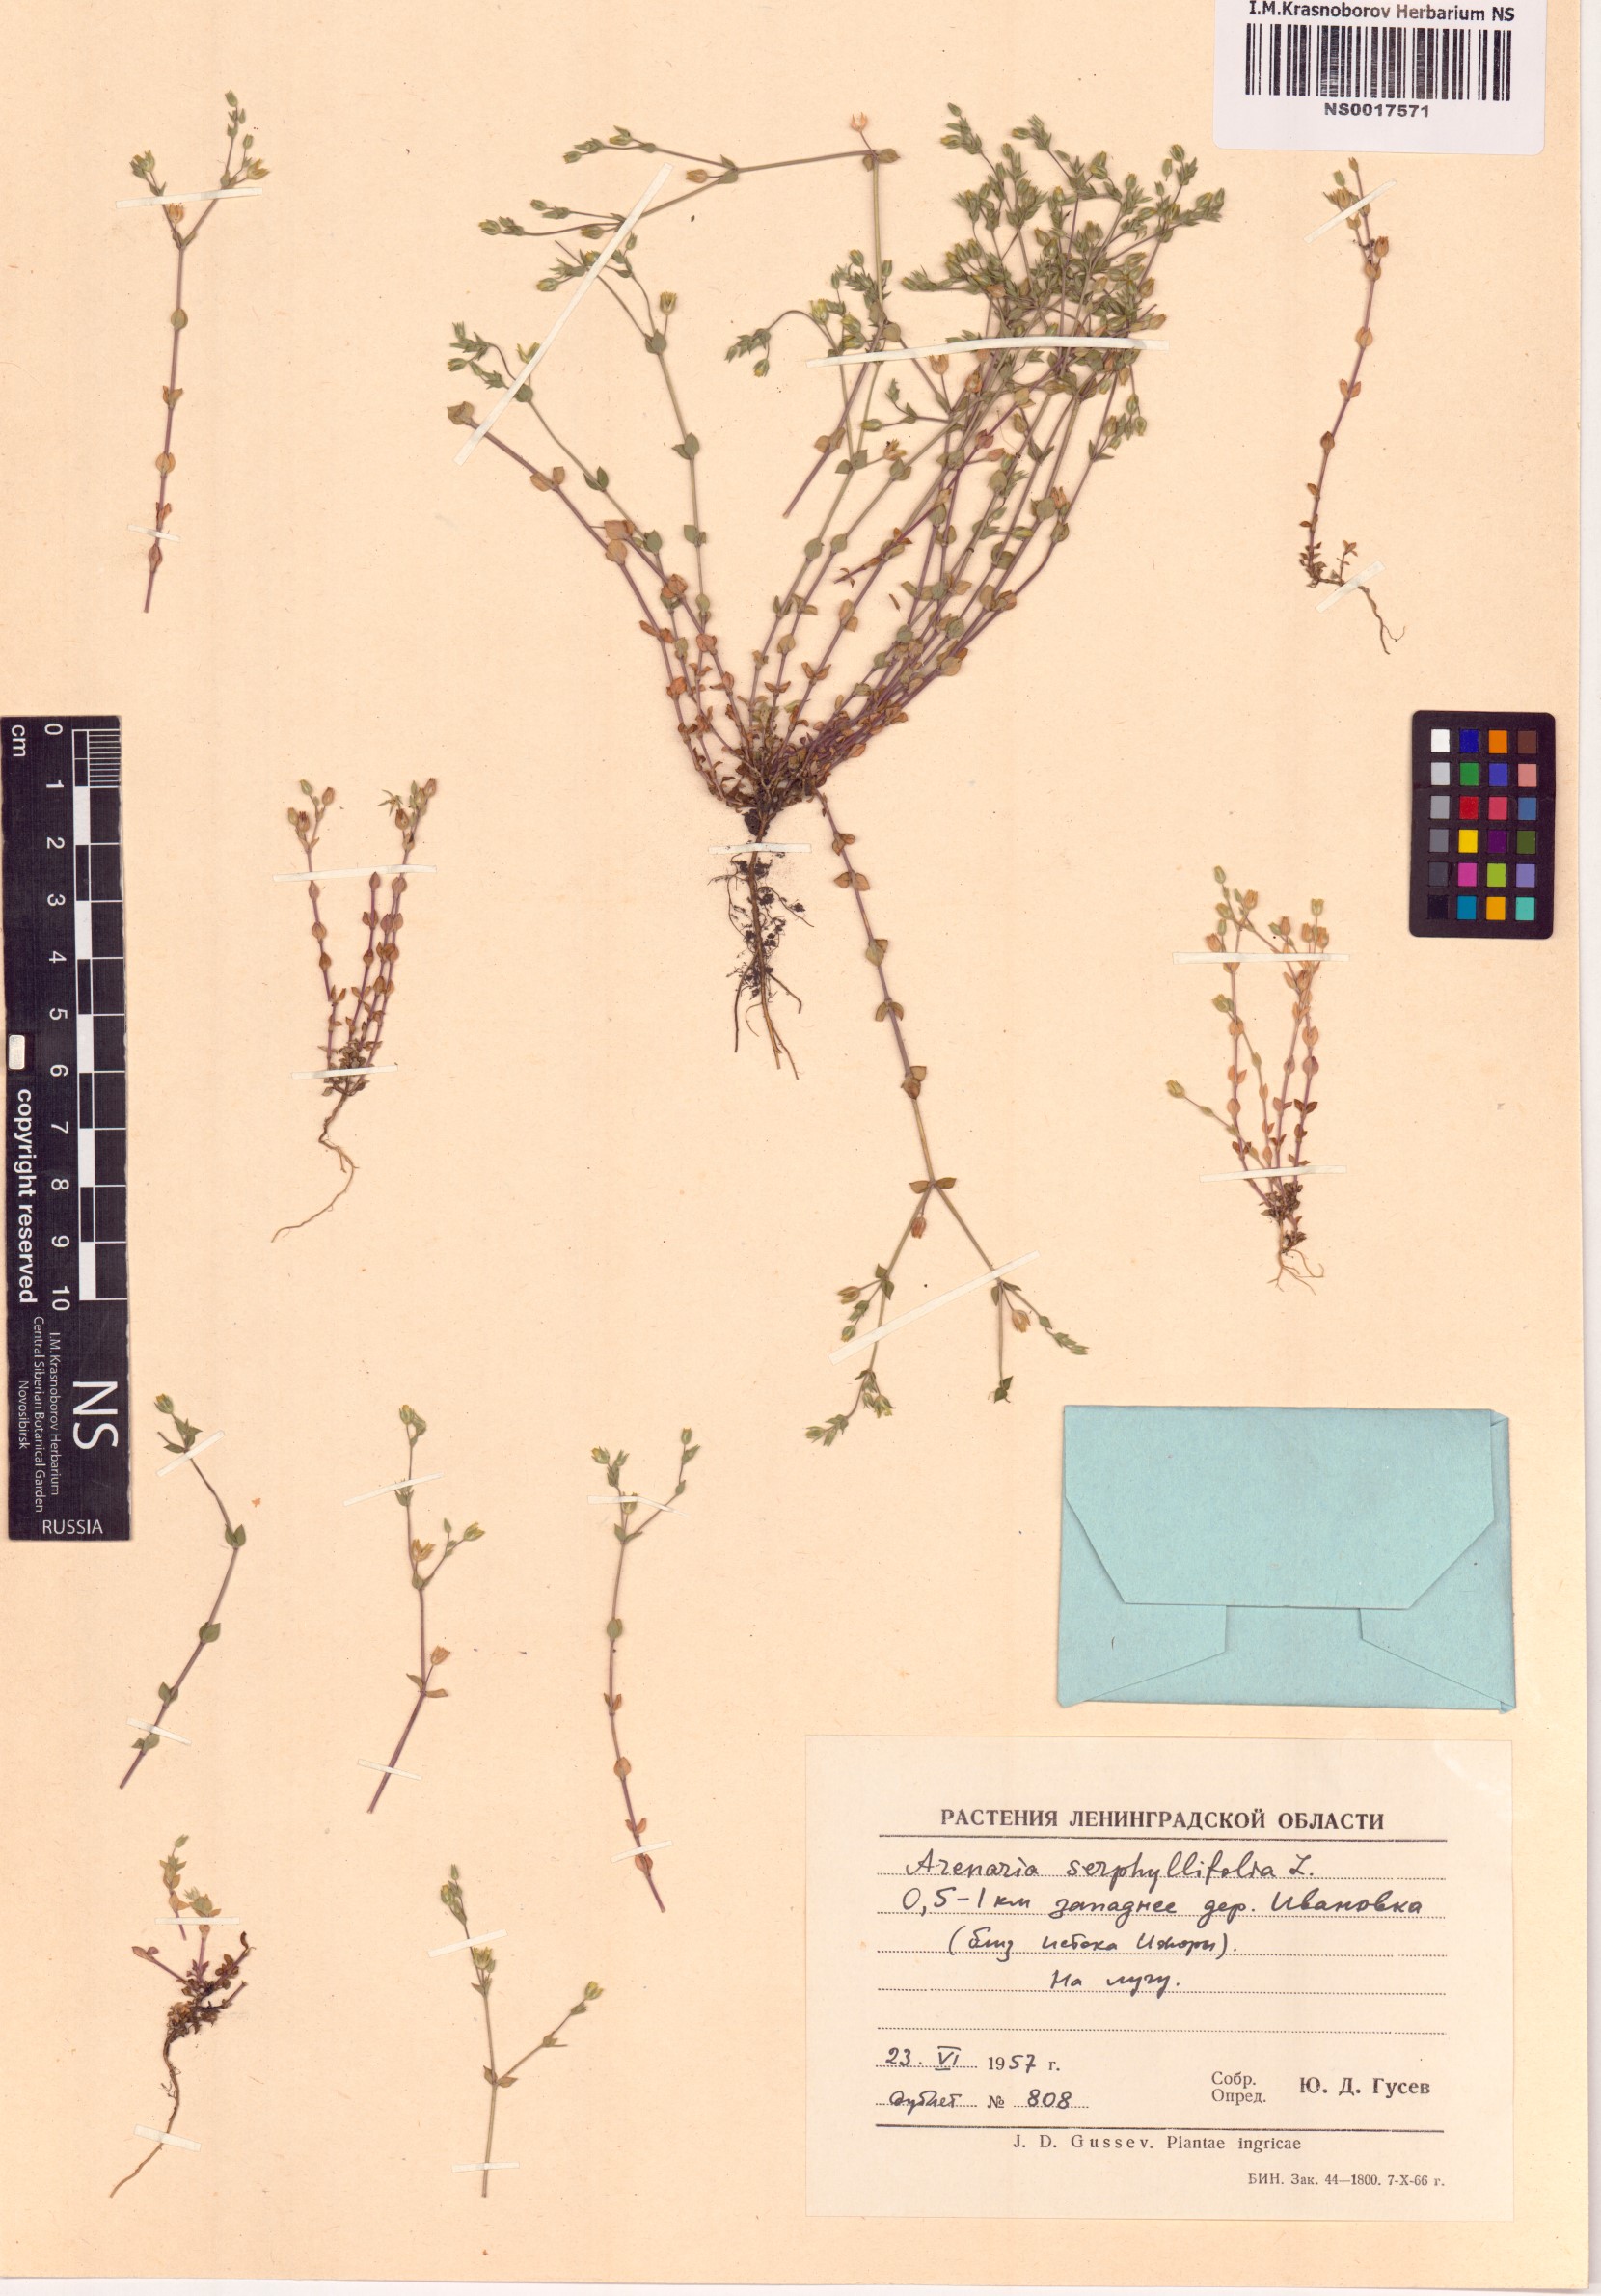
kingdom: Plantae
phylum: Tracheophyta
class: Magnoliopsida
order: Caryophyllales
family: Caryophyllaceae
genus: Arenaria
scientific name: Arenaria serpyllifolia
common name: Thyme-leaved sandwort
